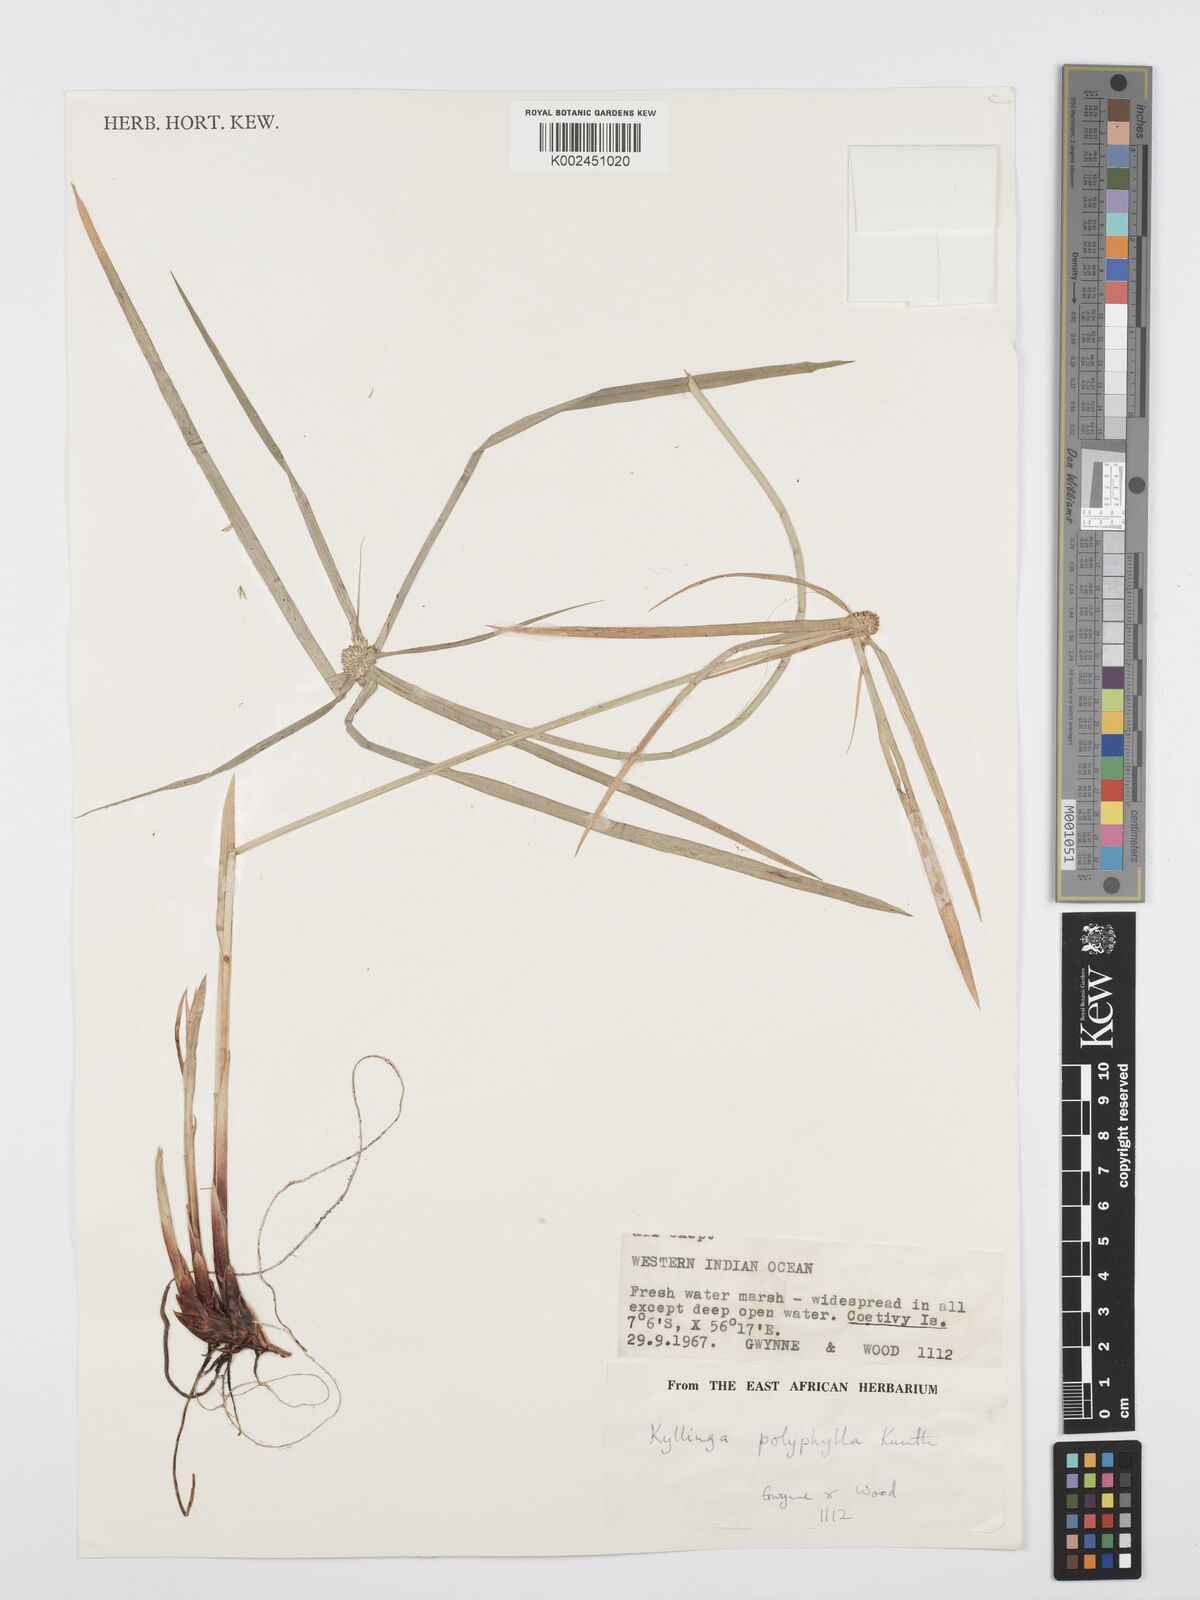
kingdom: Plantae
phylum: Tracheophyta
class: Liliopsida
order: Poales
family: Cyperaceae
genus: Cyperus
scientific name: Cyperus bulbosus
